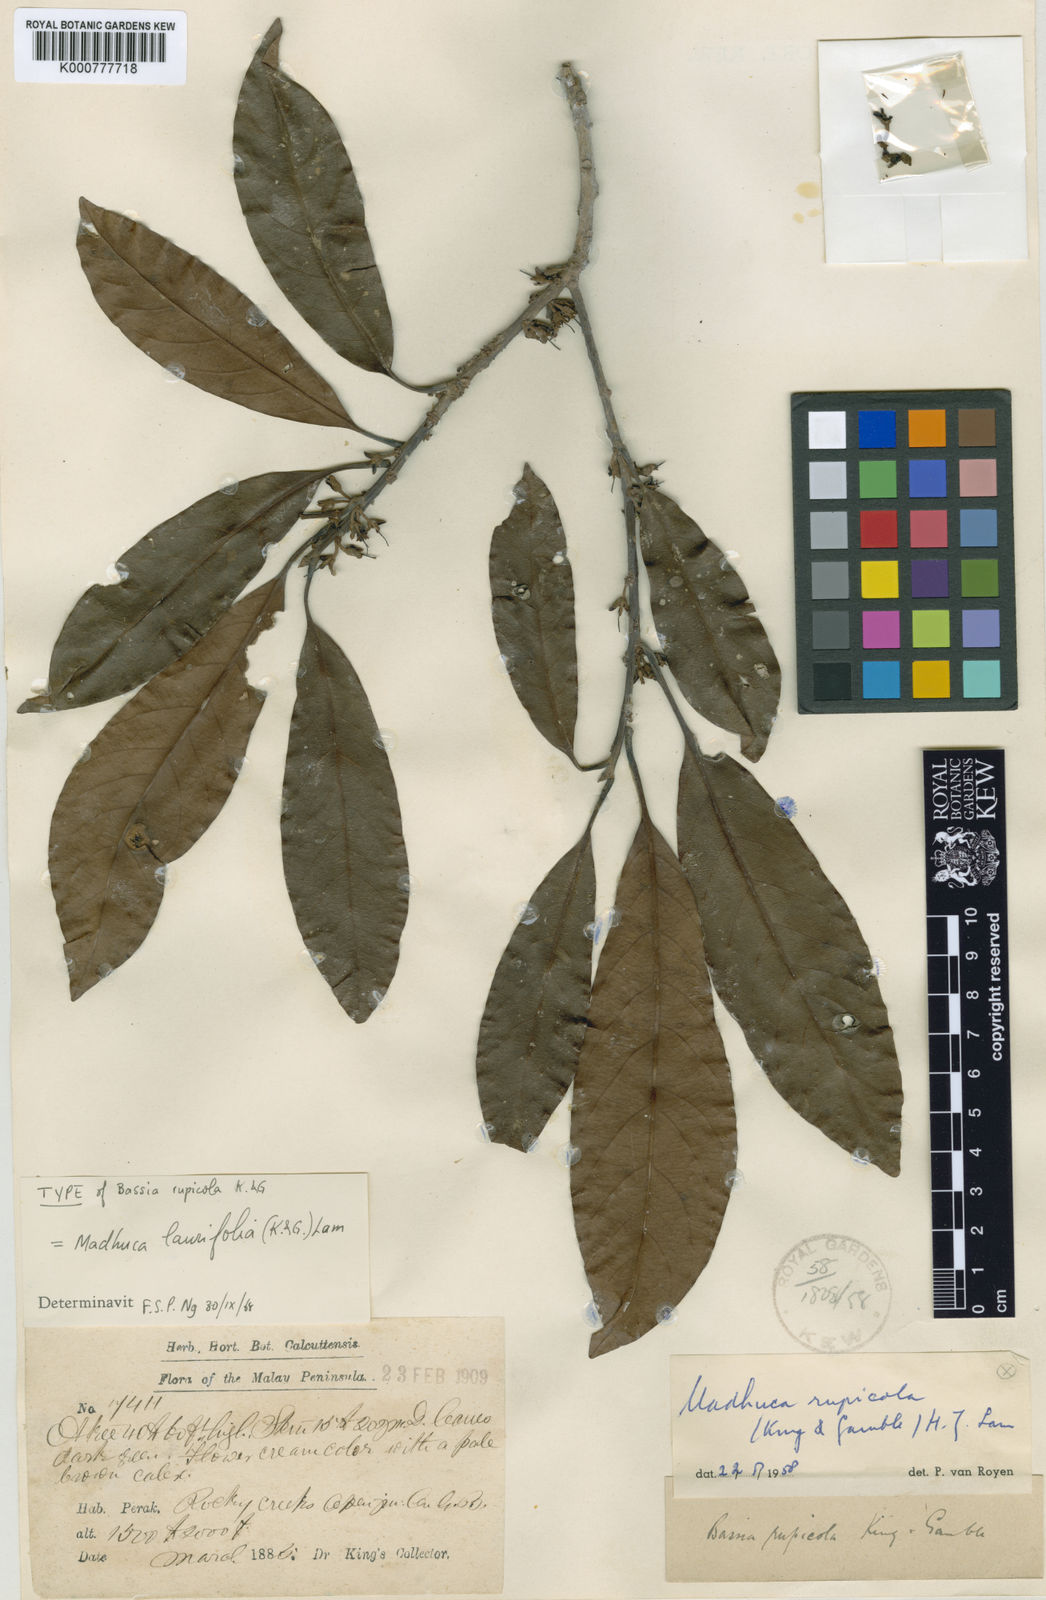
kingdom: Plantae
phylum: Tracheophyta
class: Magnoliopsida
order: Ericales
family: Sapotaceae
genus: Madhuca
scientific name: Madhuca laurifolia
